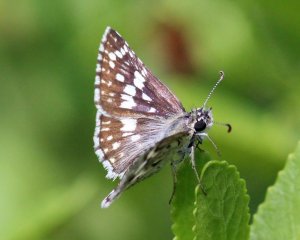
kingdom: Animalia
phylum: Arthropoda
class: Insecta
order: Lepidoptera
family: Hesperiidae
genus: Pyrgus
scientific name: Pyrgus communis
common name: White Checkered-Skipper
